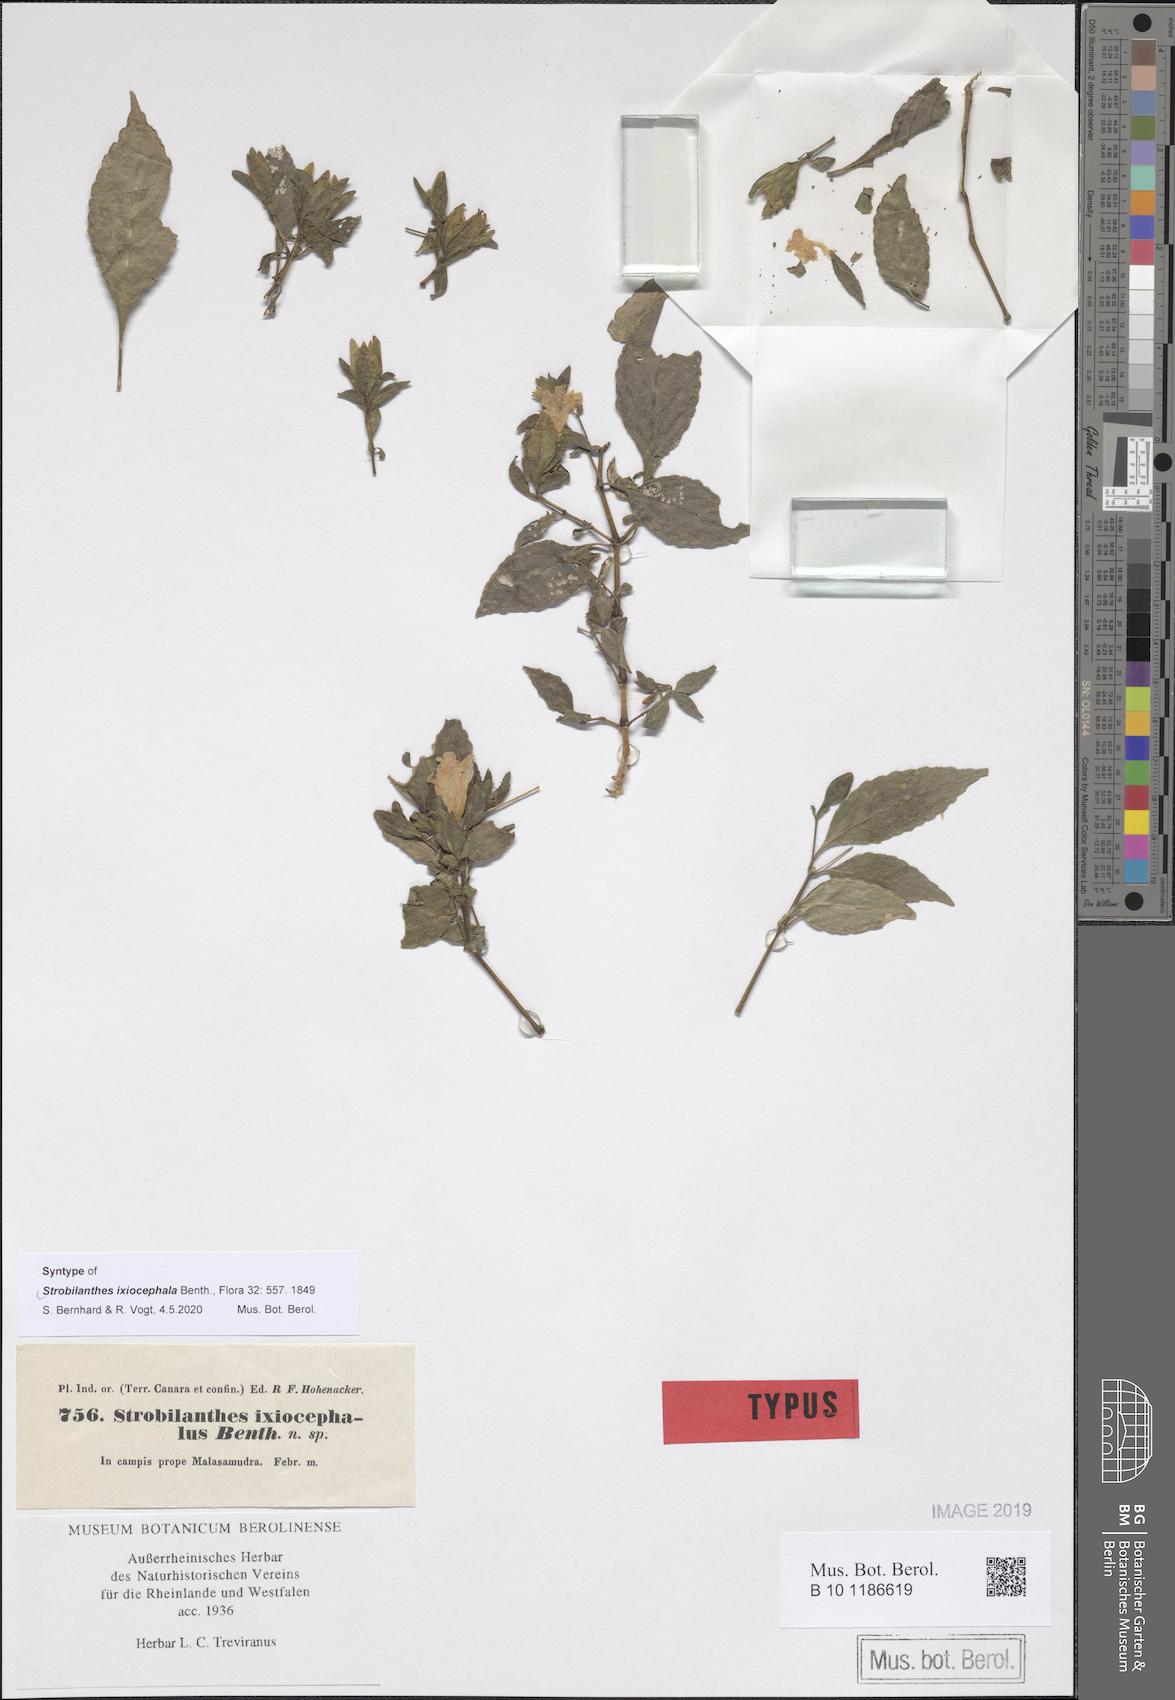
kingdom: Plantae
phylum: Tracheophyta
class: Magnoliopsida
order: Lamiales
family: Acanthaceae
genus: Strobilanthes
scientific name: Strobilanthes ixiocephala
